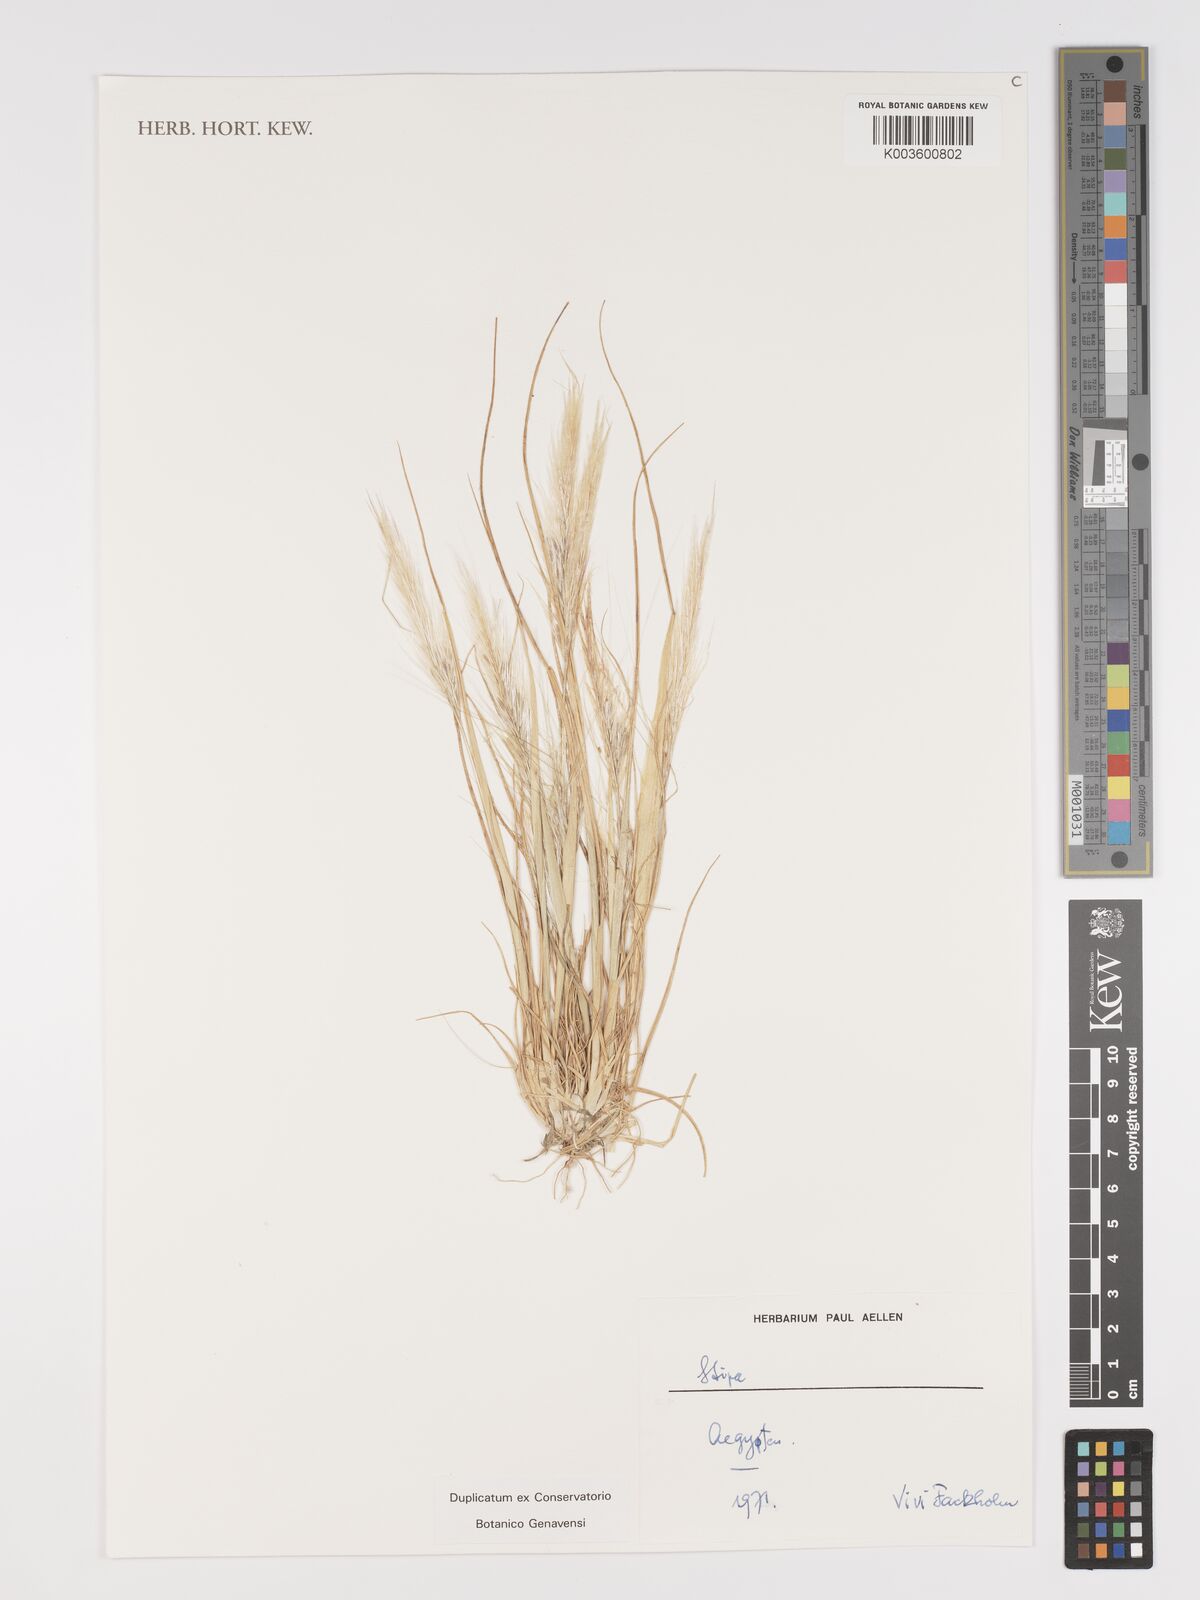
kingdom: Plantae
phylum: Tracheophyta
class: Liliopsida
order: Poales
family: Poaceae
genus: Stipa
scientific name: Stipa
